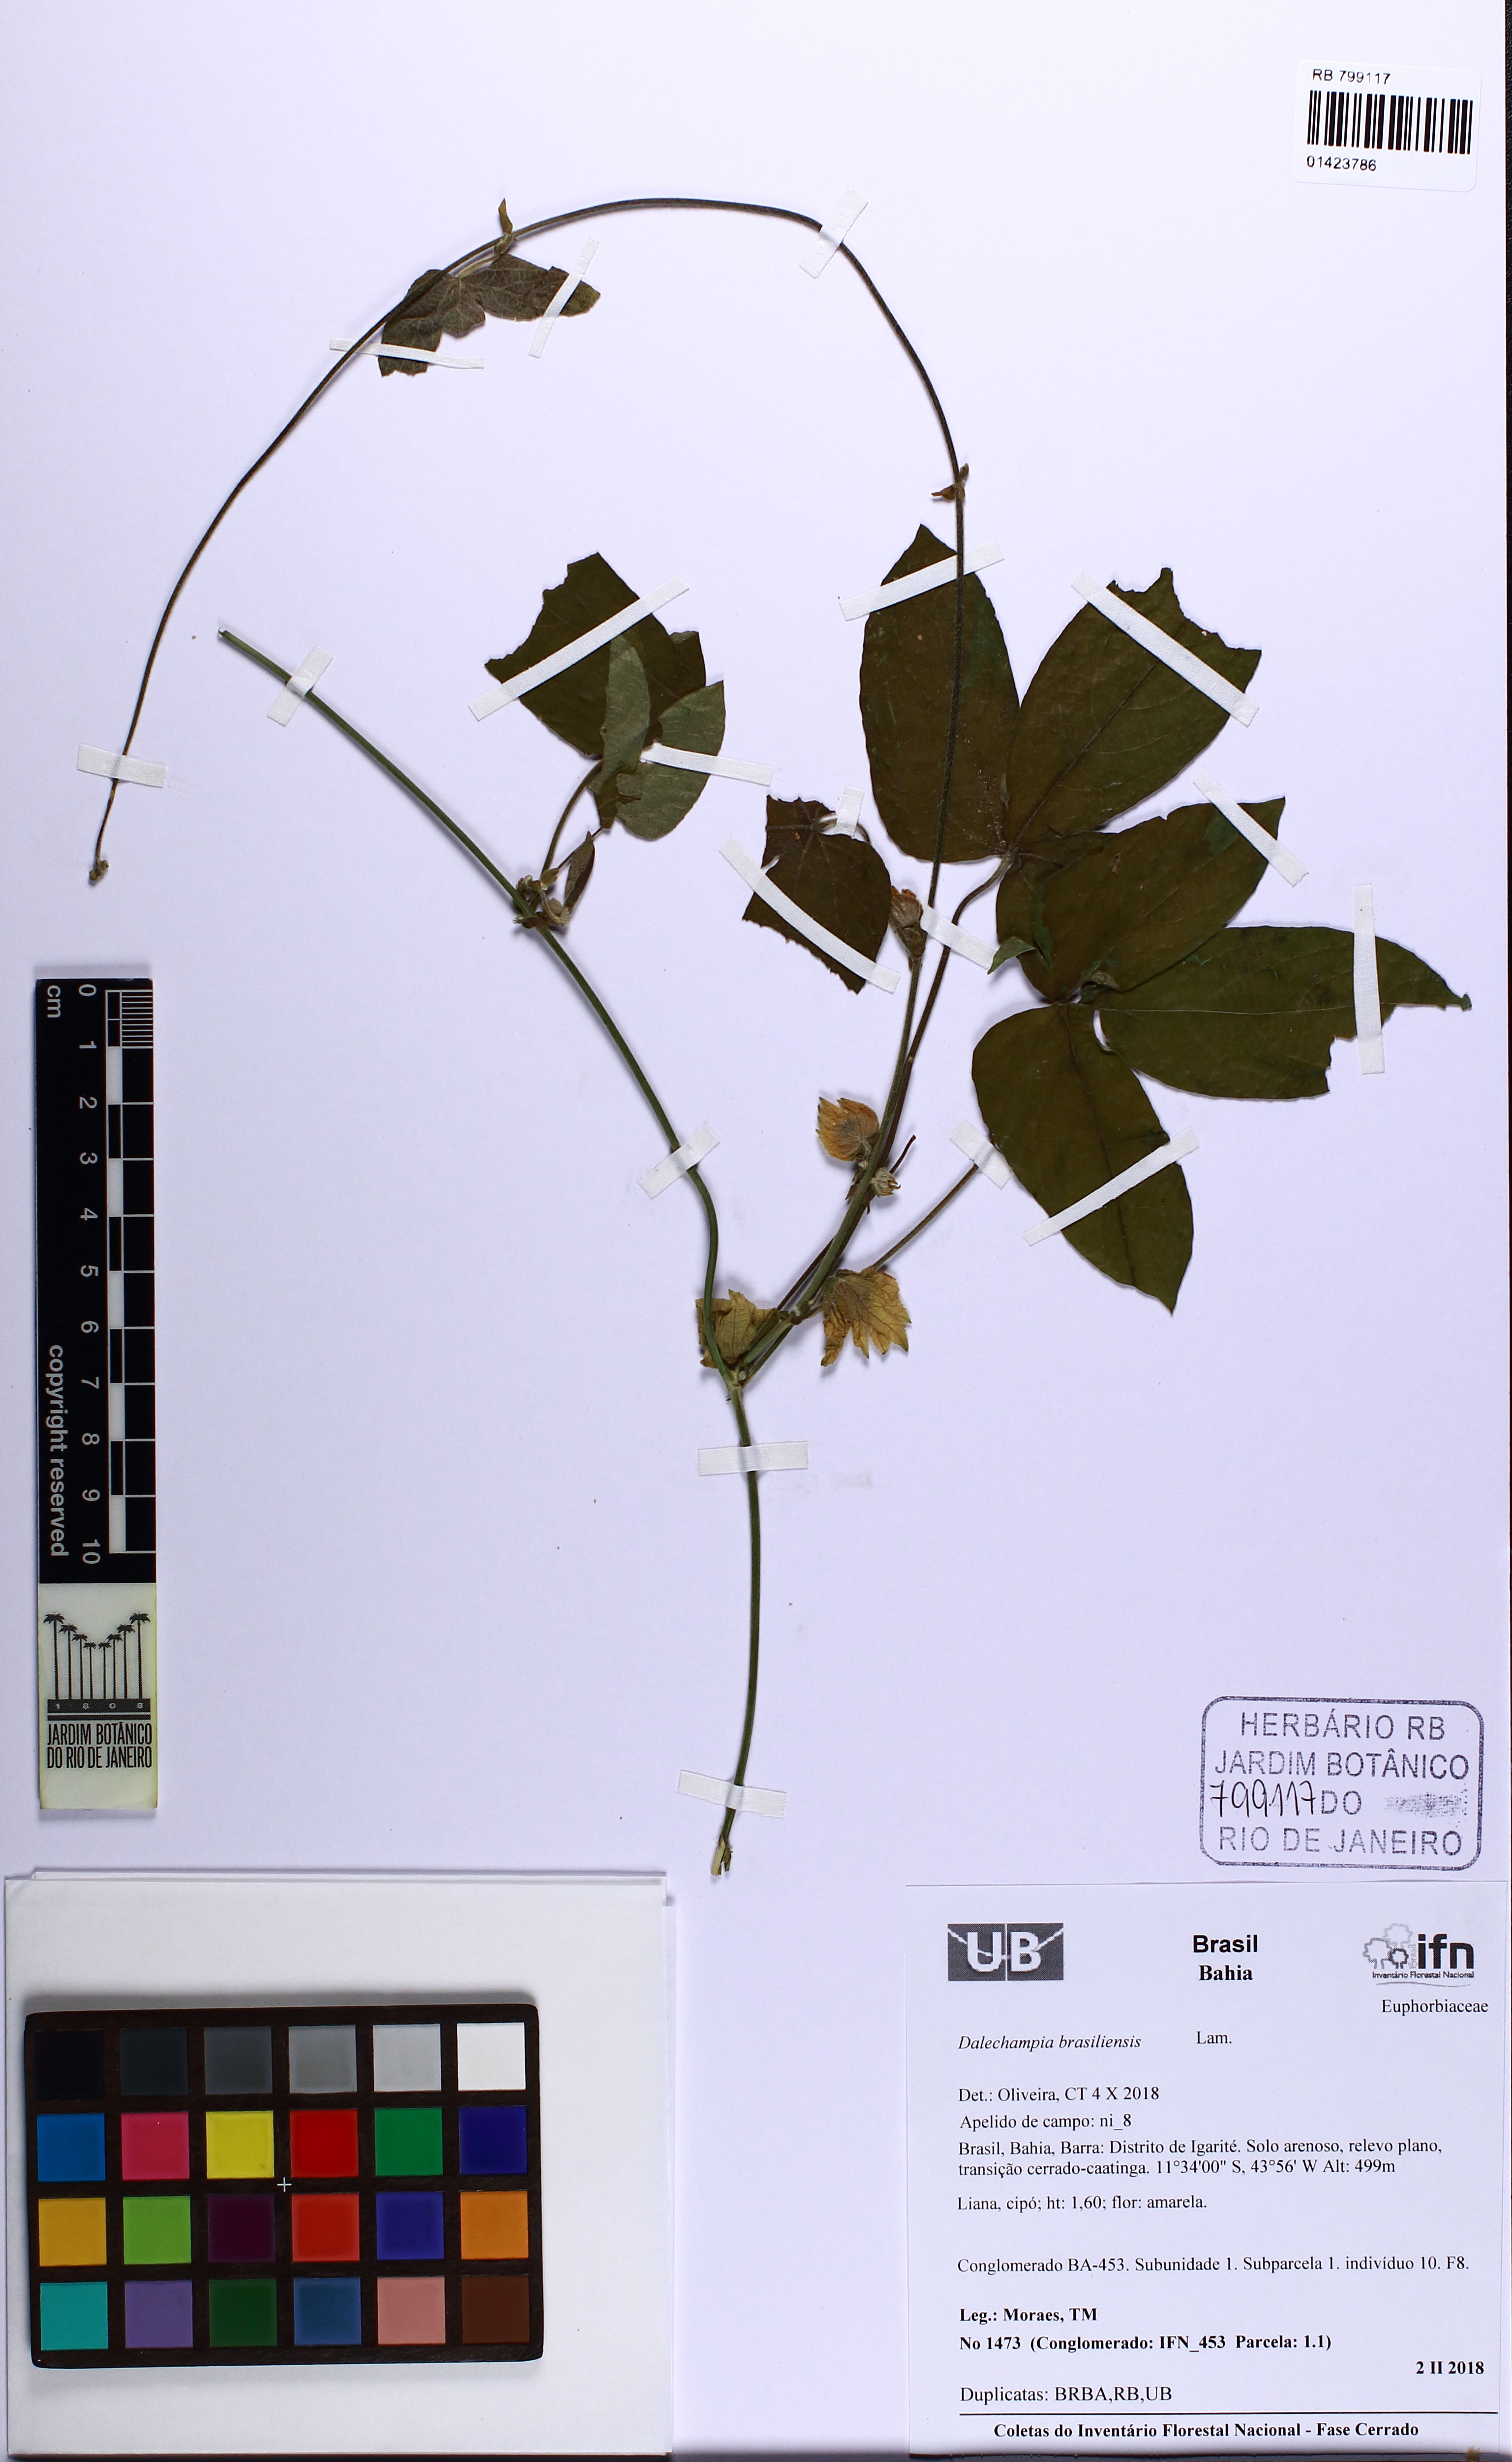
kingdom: Plantae
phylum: Tracheophyta
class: Magnoliopsida
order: Malpighiales
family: Euphorbiaceae
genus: Dalechampia
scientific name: Dalechampia brasiliensis
